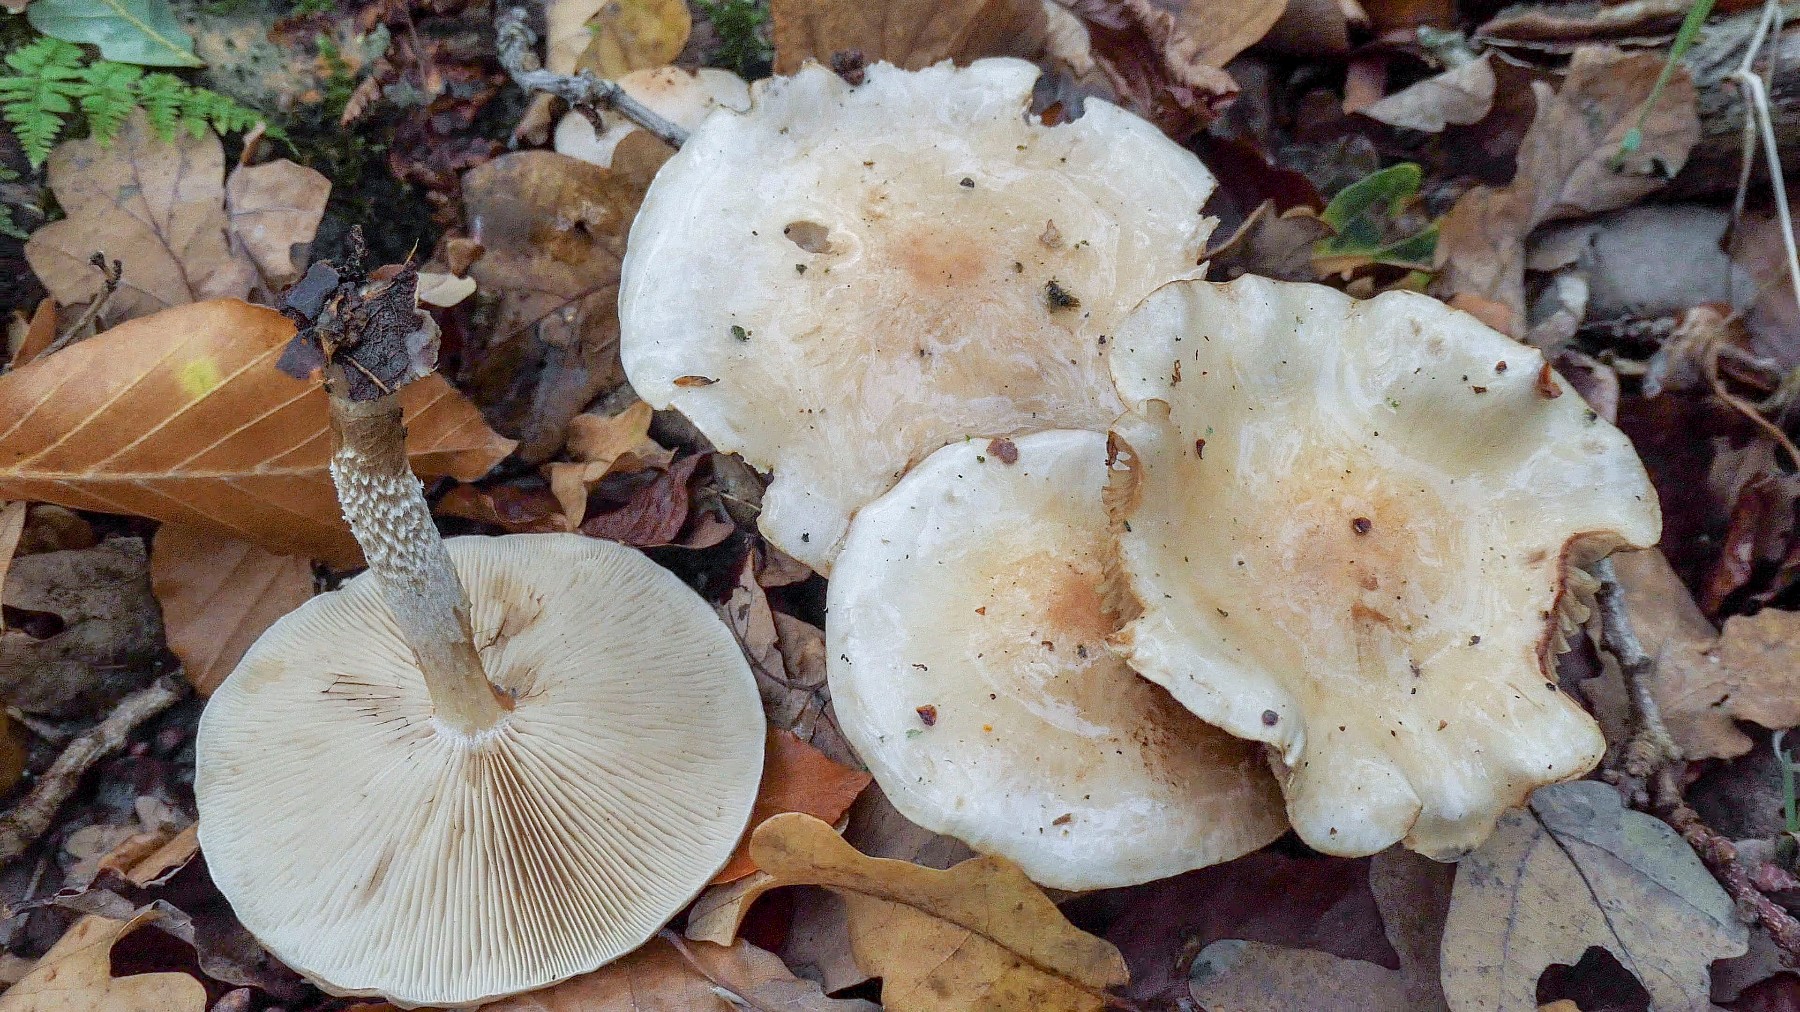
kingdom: Fungi
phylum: Basidiomycota
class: Agaricomycetes
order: Agaricales
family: Strophariaceae
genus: Pholiota
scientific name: Pholiota lenta
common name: løv-skælhat
